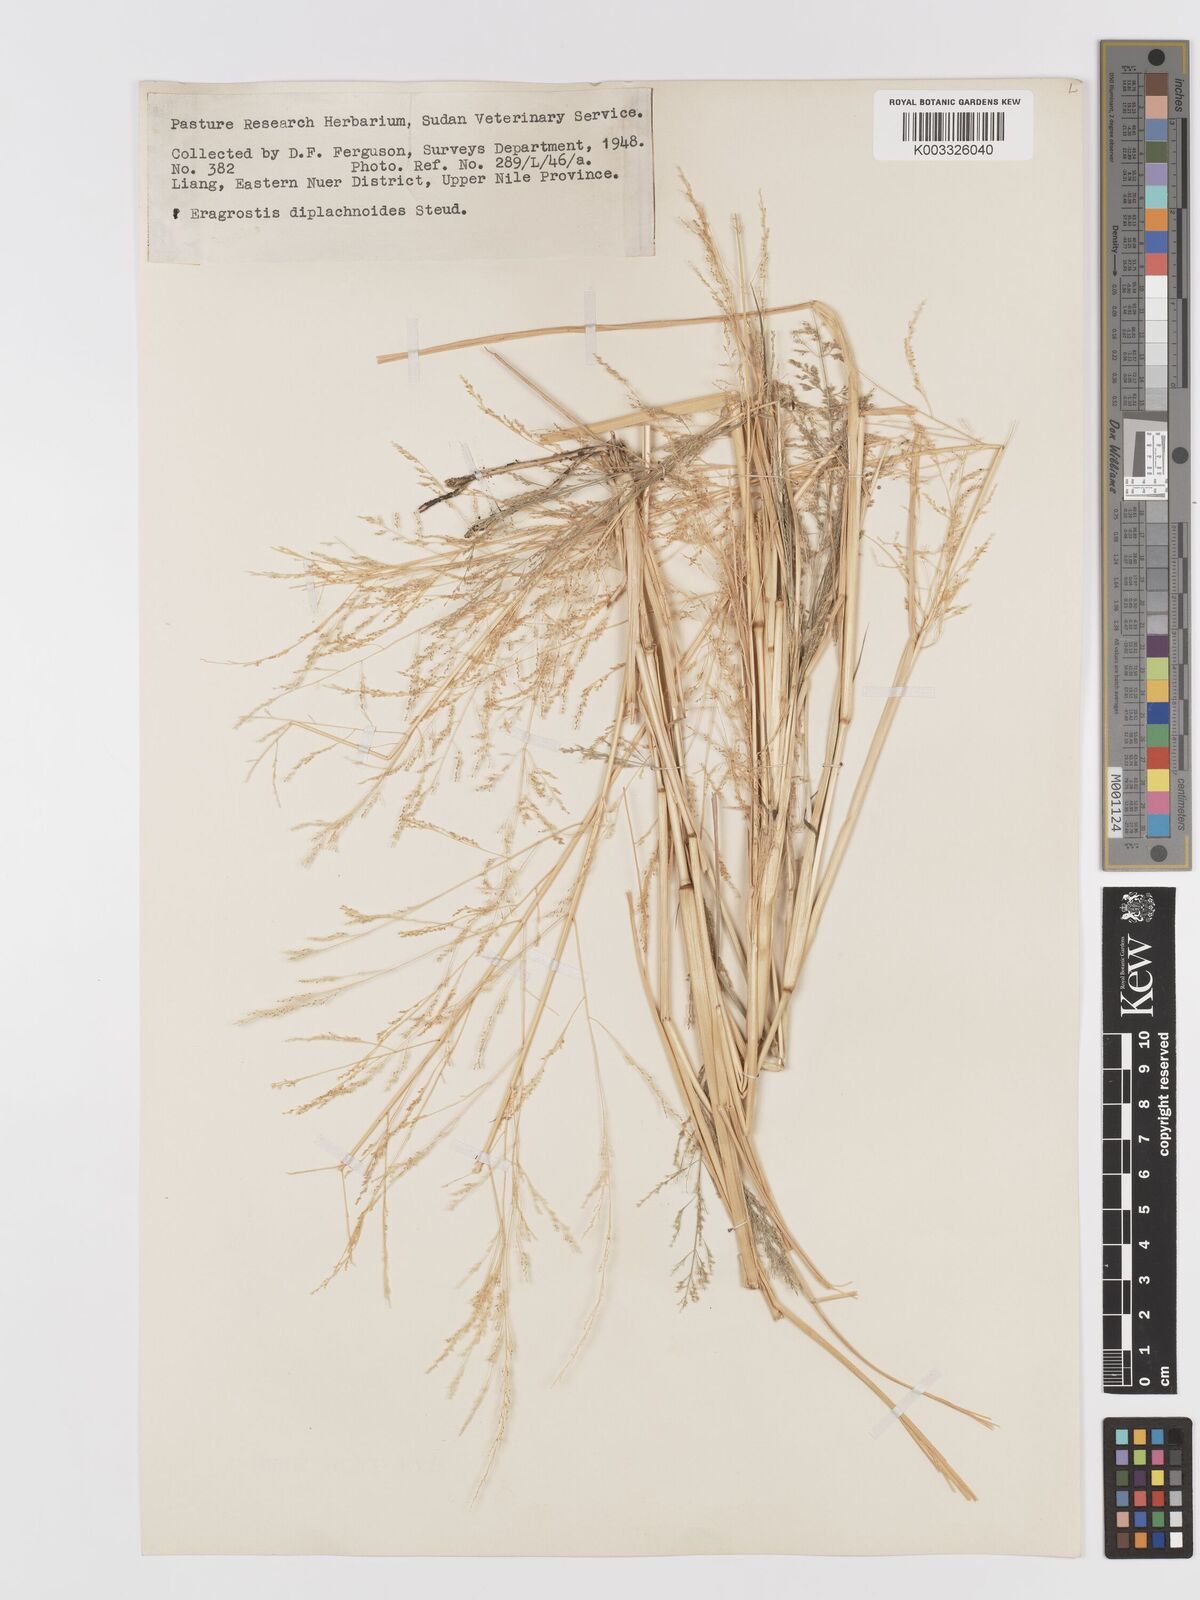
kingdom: Plantae
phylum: Tracheophyta
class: Liliopsida
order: Poales
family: Poaceae
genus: Eragrostis
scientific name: Eragrostis japonica
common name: Pond lovegrass
